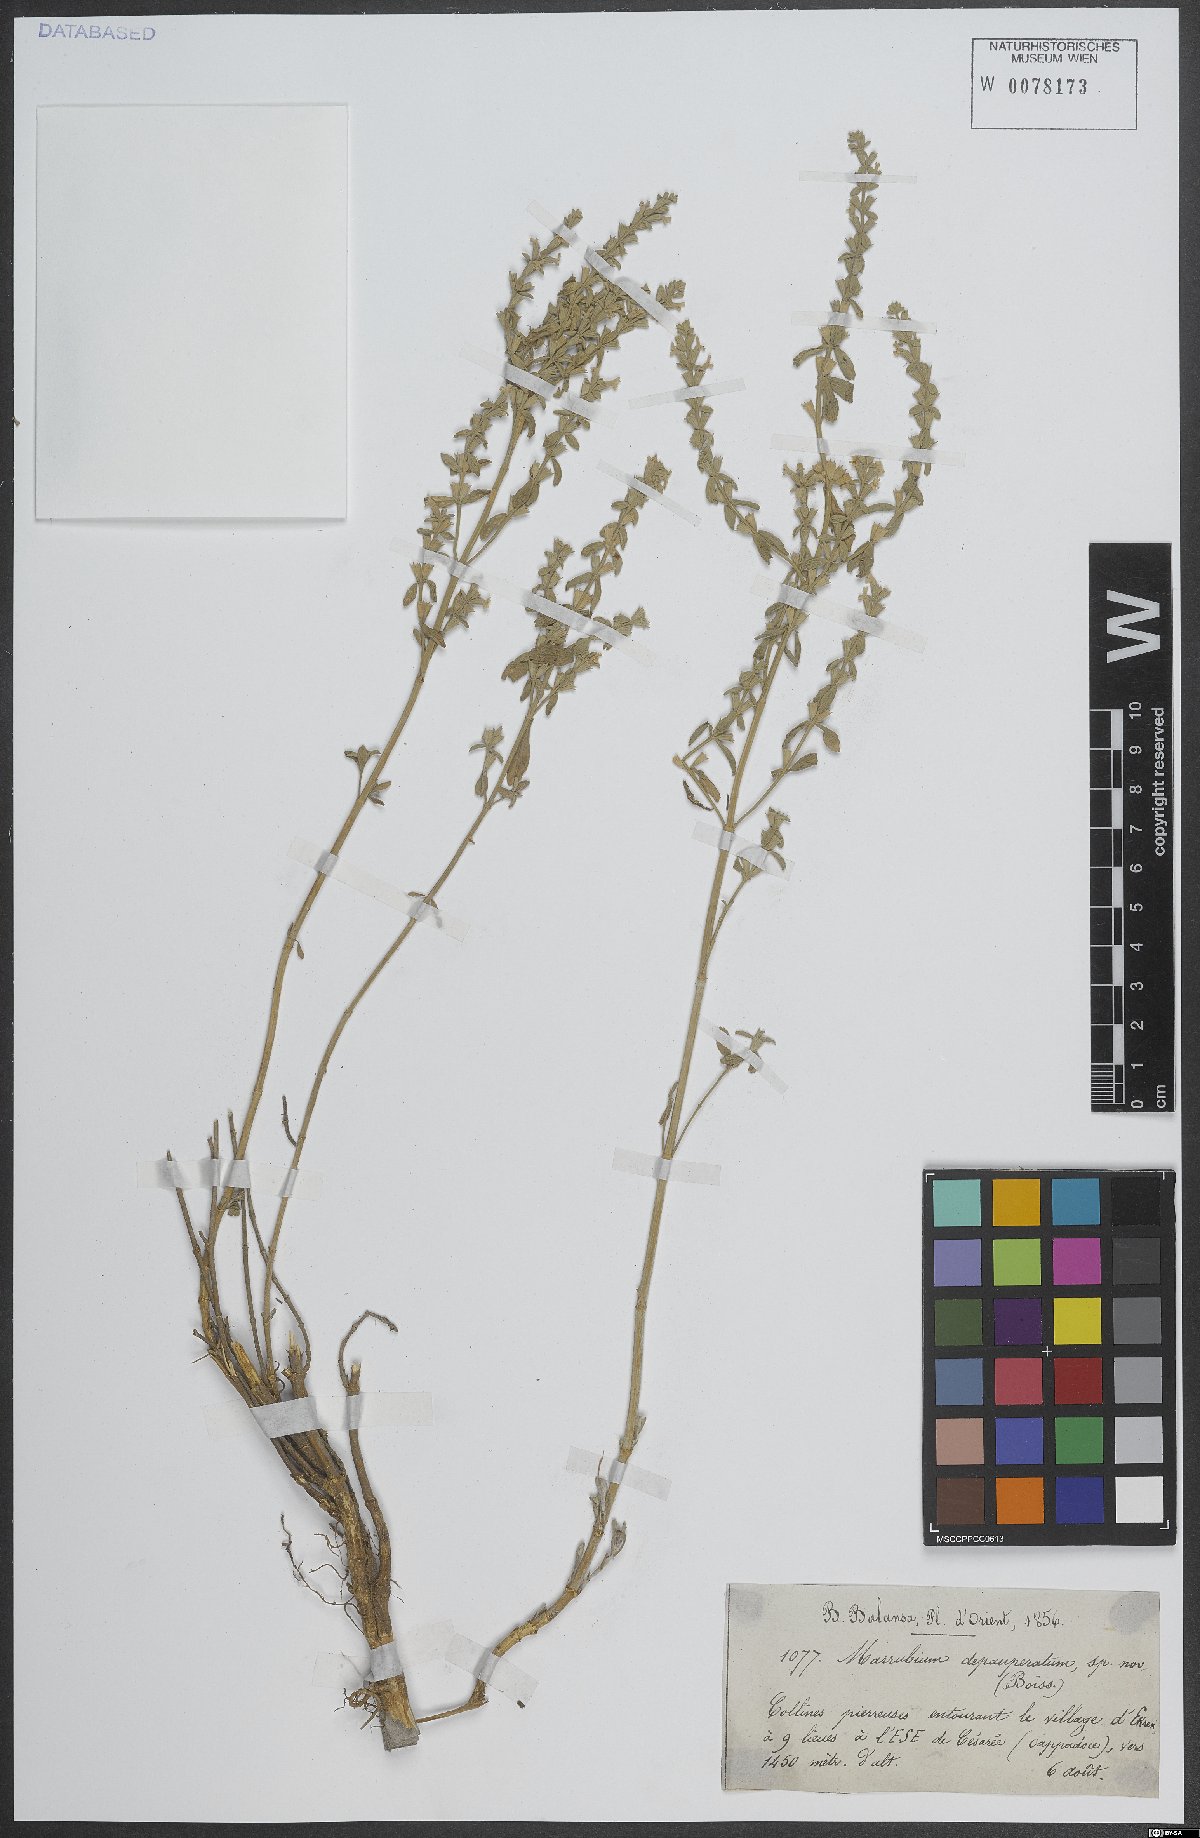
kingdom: Plantae
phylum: Tracheophyta
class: Magnoliopsida
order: Lamiales
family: Lamiaceae
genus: Marrubium
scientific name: Marrubium depauperatum
